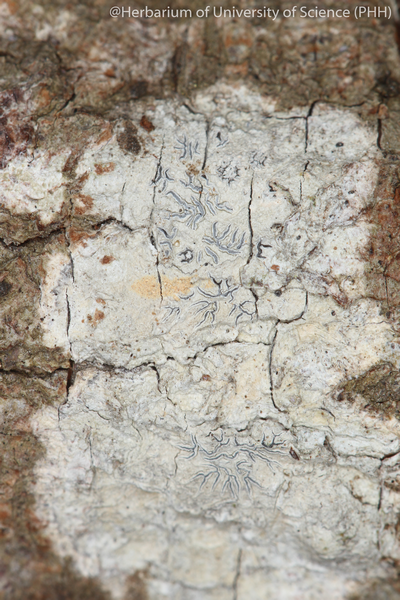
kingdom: Fungi
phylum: Ascomycota
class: Lecanoromycetes
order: Ostropales
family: Graphidaceae
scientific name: Graphidaceae
